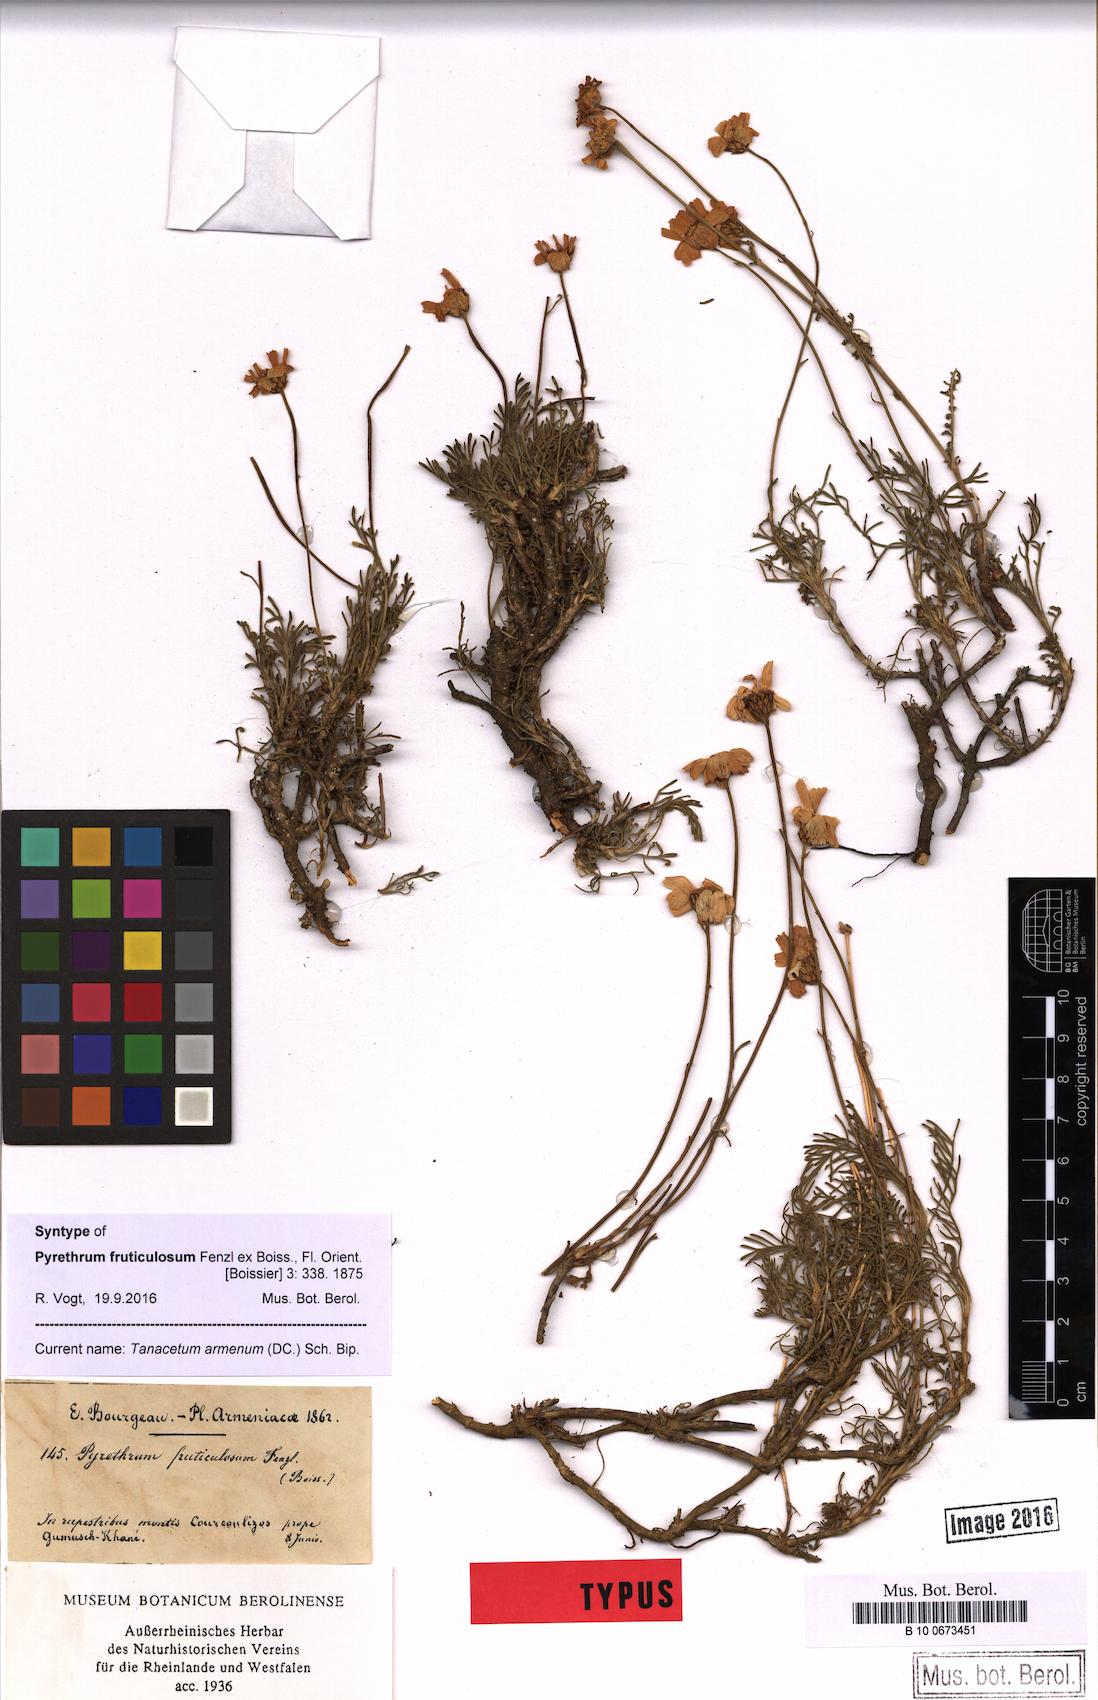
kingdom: Plantae
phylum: Tracheophyta
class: Magnoliopsida
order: Asterales
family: Asteraceae
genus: Tanacetum
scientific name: Tanacetum armenum
